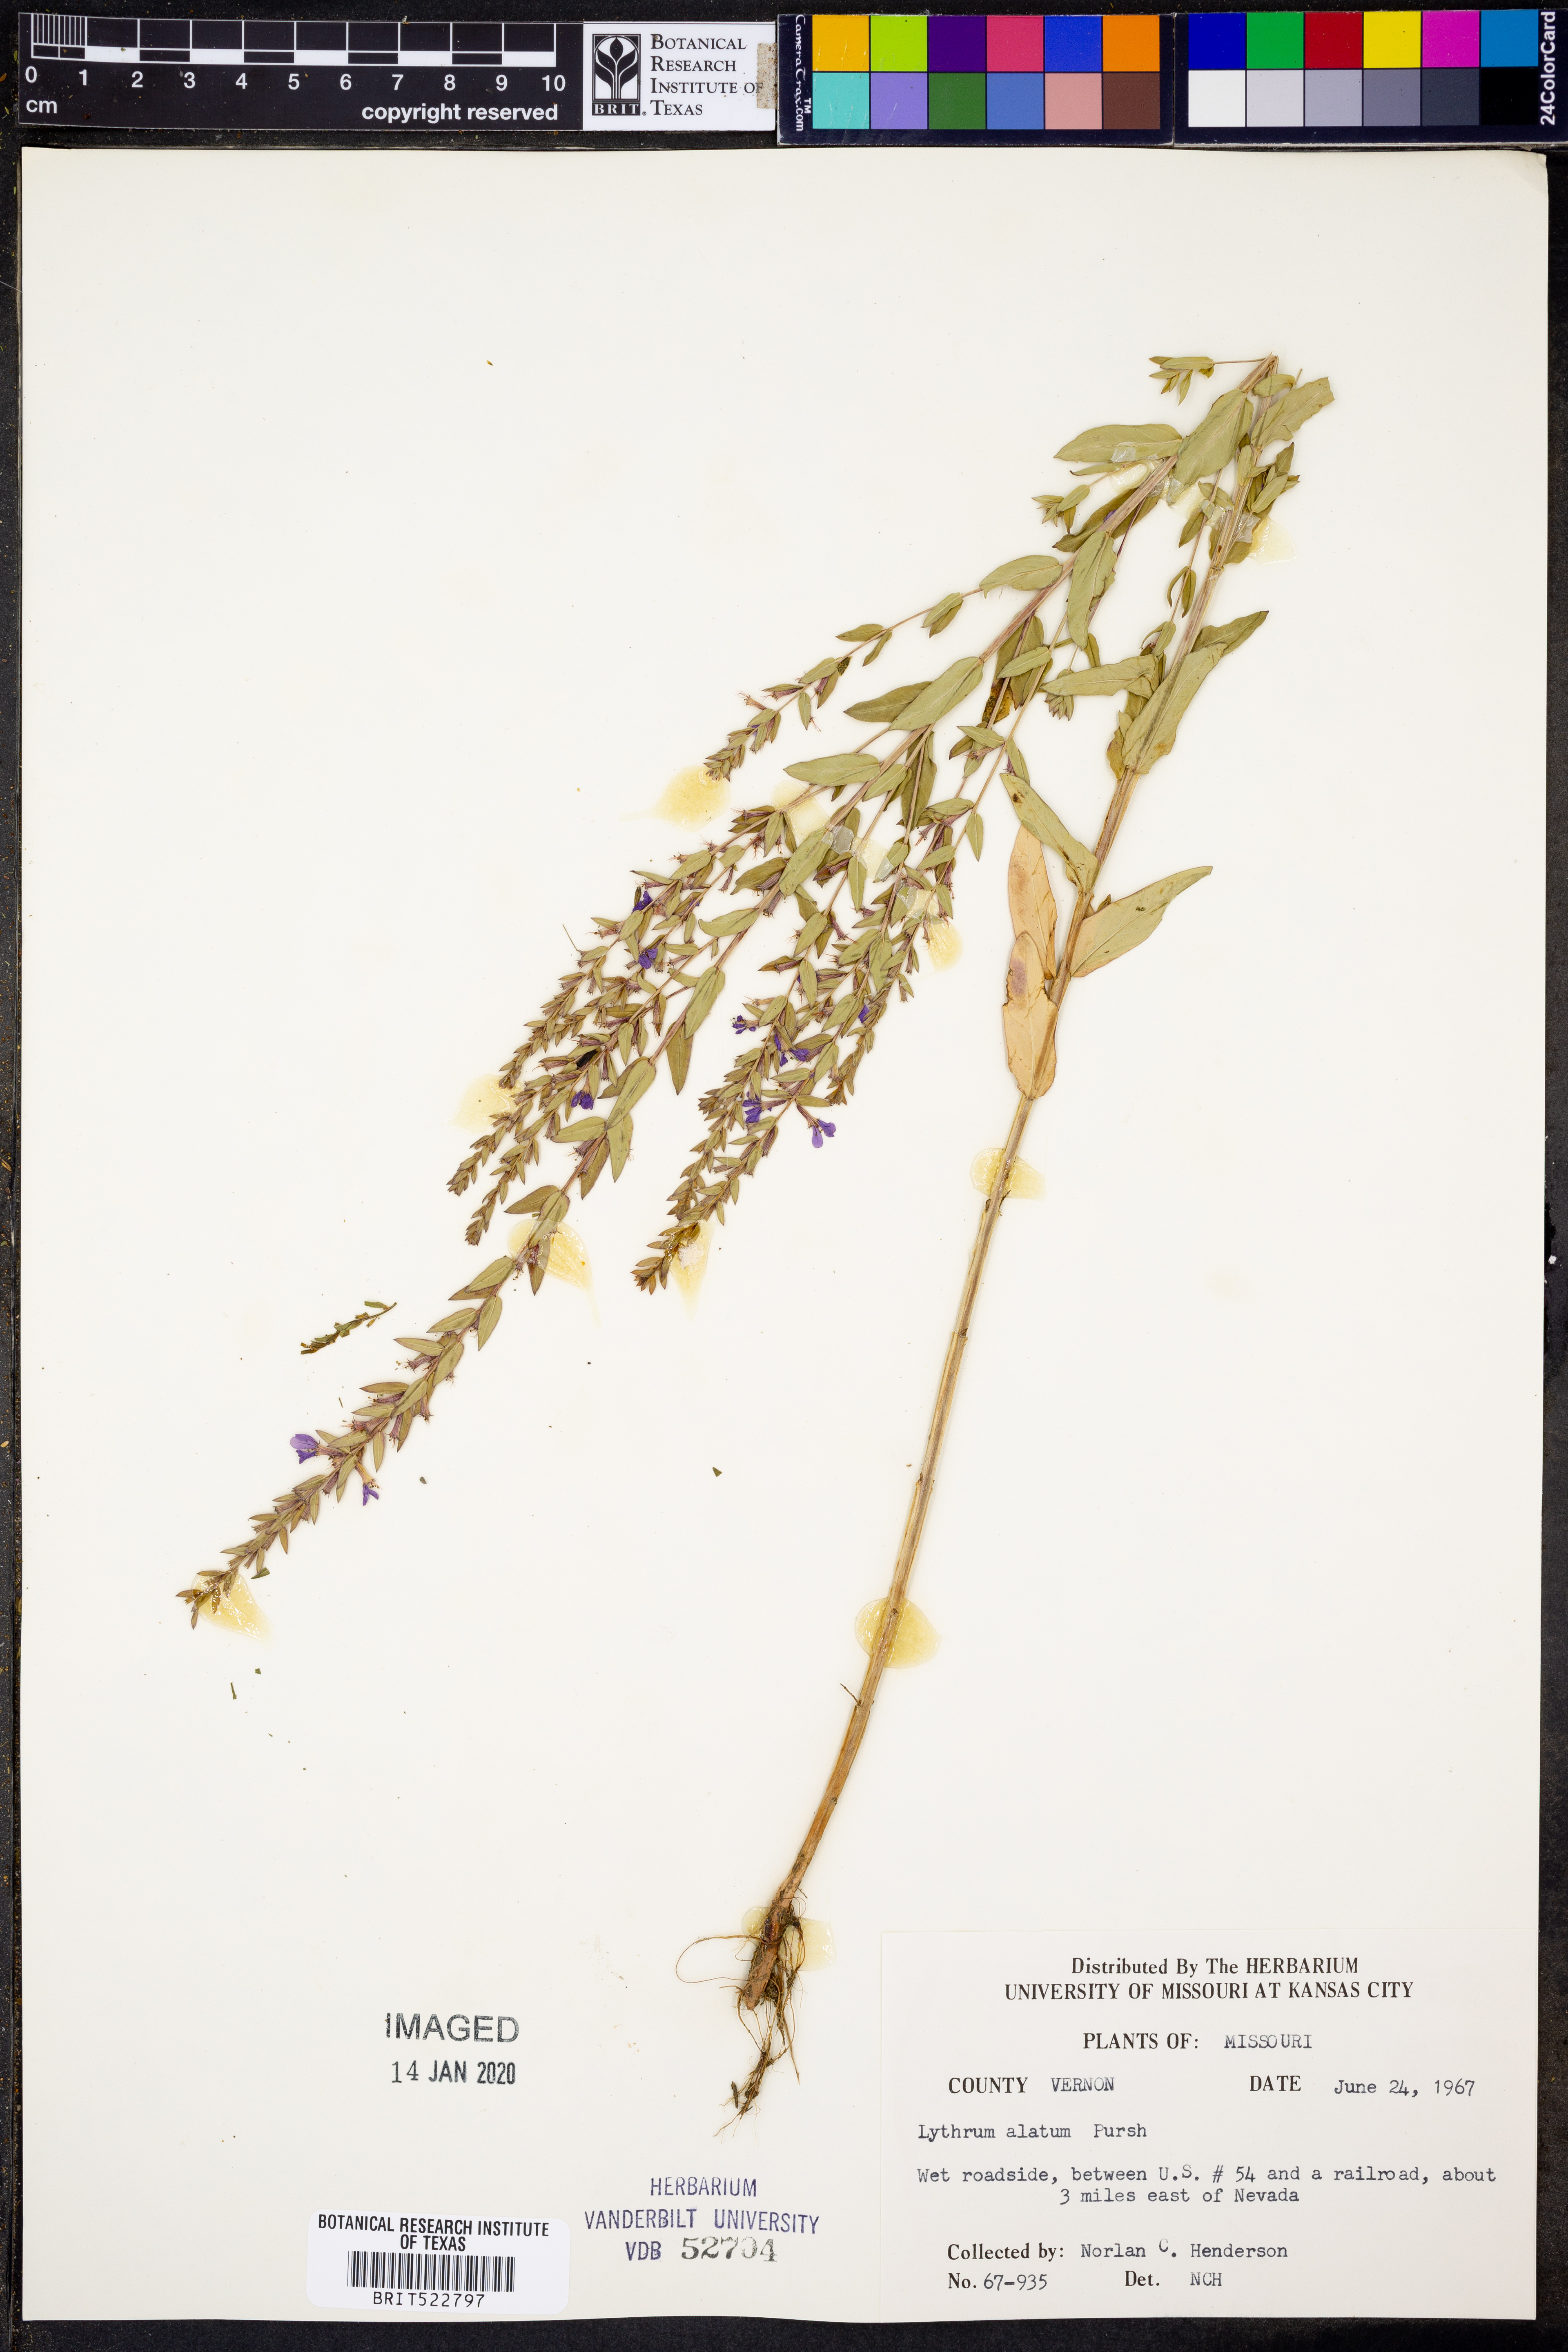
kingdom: Plantae
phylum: Tracheophyta
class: Magnoliopsida
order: Myrtales
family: Lythraceae
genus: Lythrum
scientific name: Lythrum alatum
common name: Winged loosestrife
